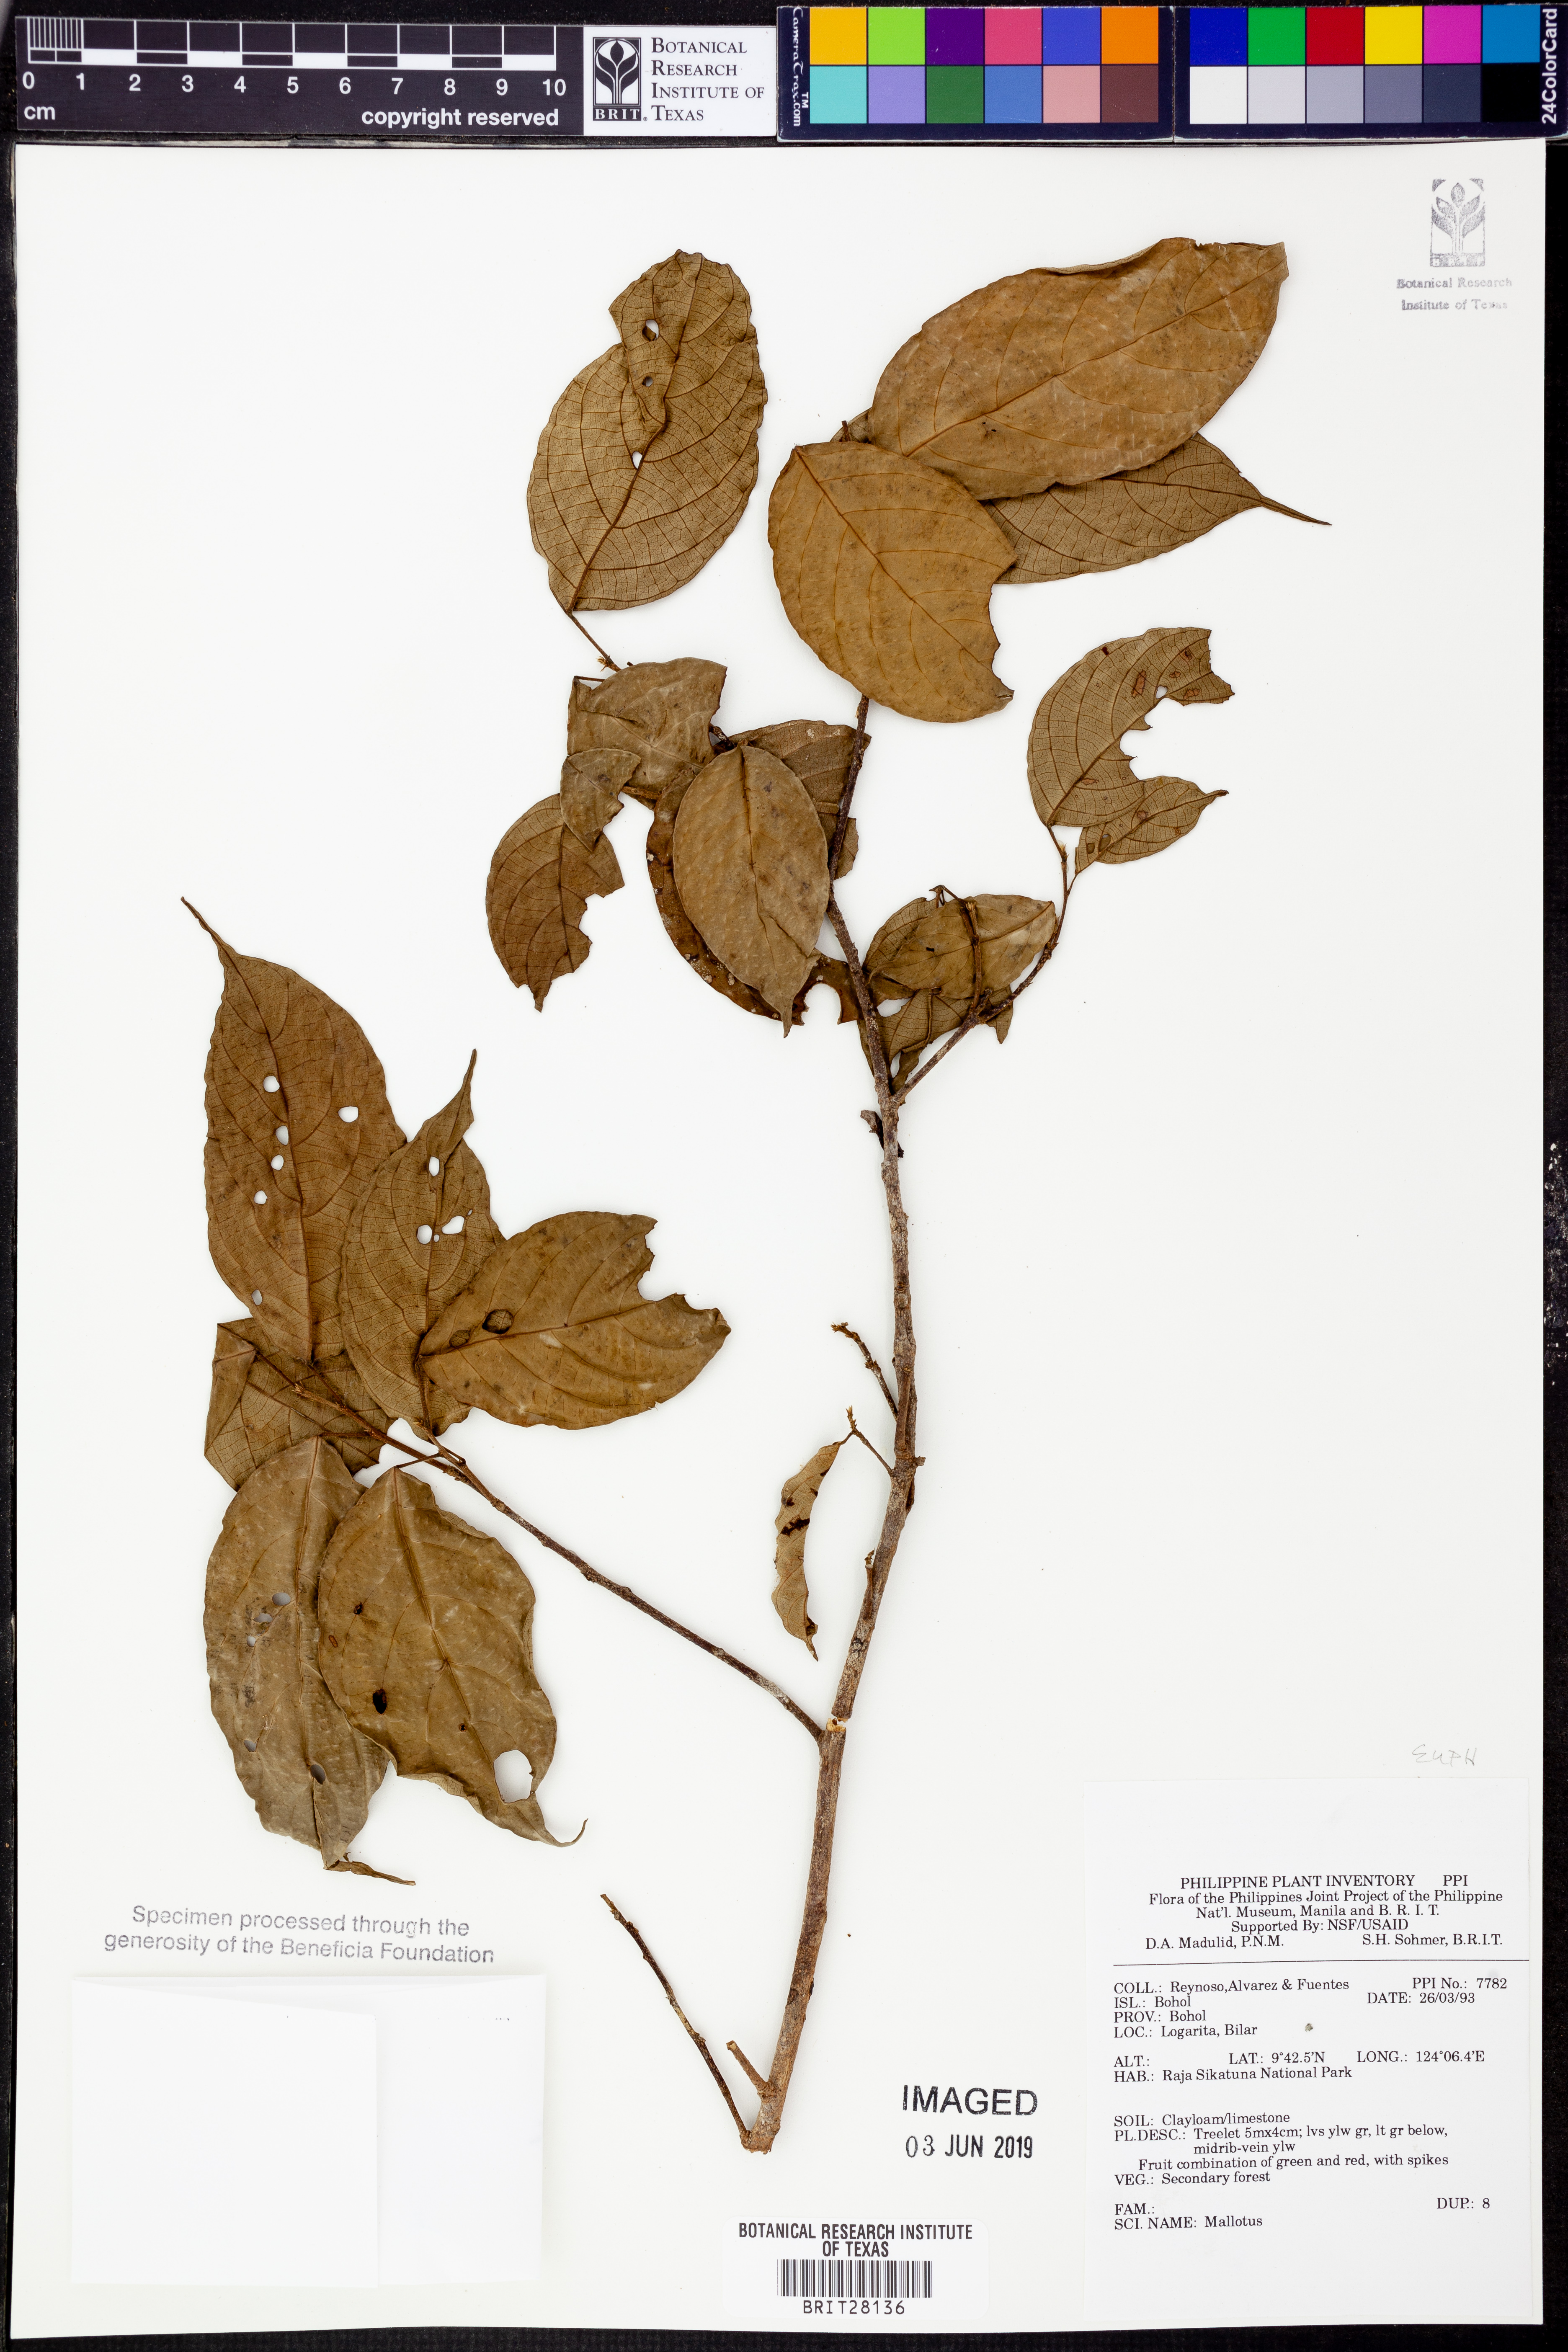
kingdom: Plantae
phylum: Tracheophyta
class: Magnoliopsida
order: Malpighiales
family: Euphorbiaceae
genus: Mallotus
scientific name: Mallotus
